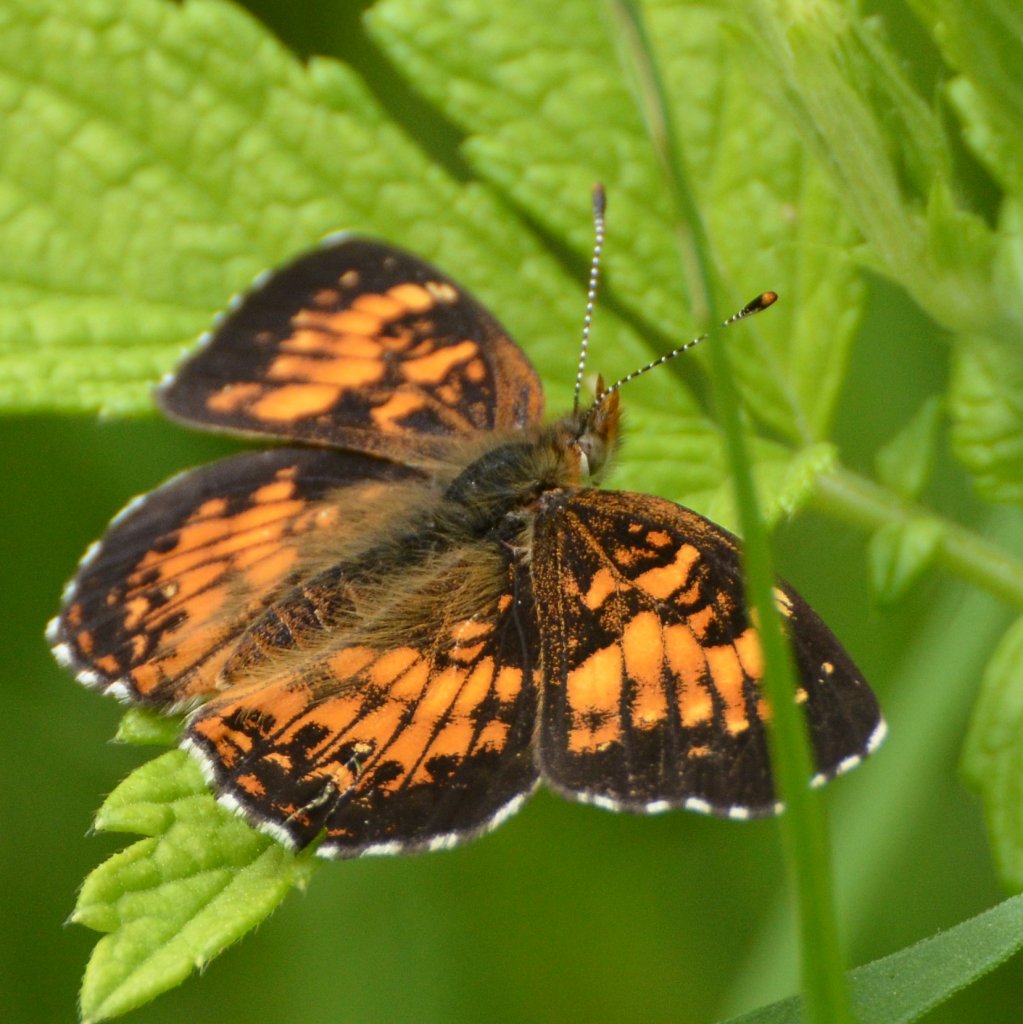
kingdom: Animalia
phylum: Arthropoda
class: Insecta
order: Lepidoptera
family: Nymphalidae
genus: Chlosyne
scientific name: Chlosyne harrisii
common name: Harris's Checkerspot
